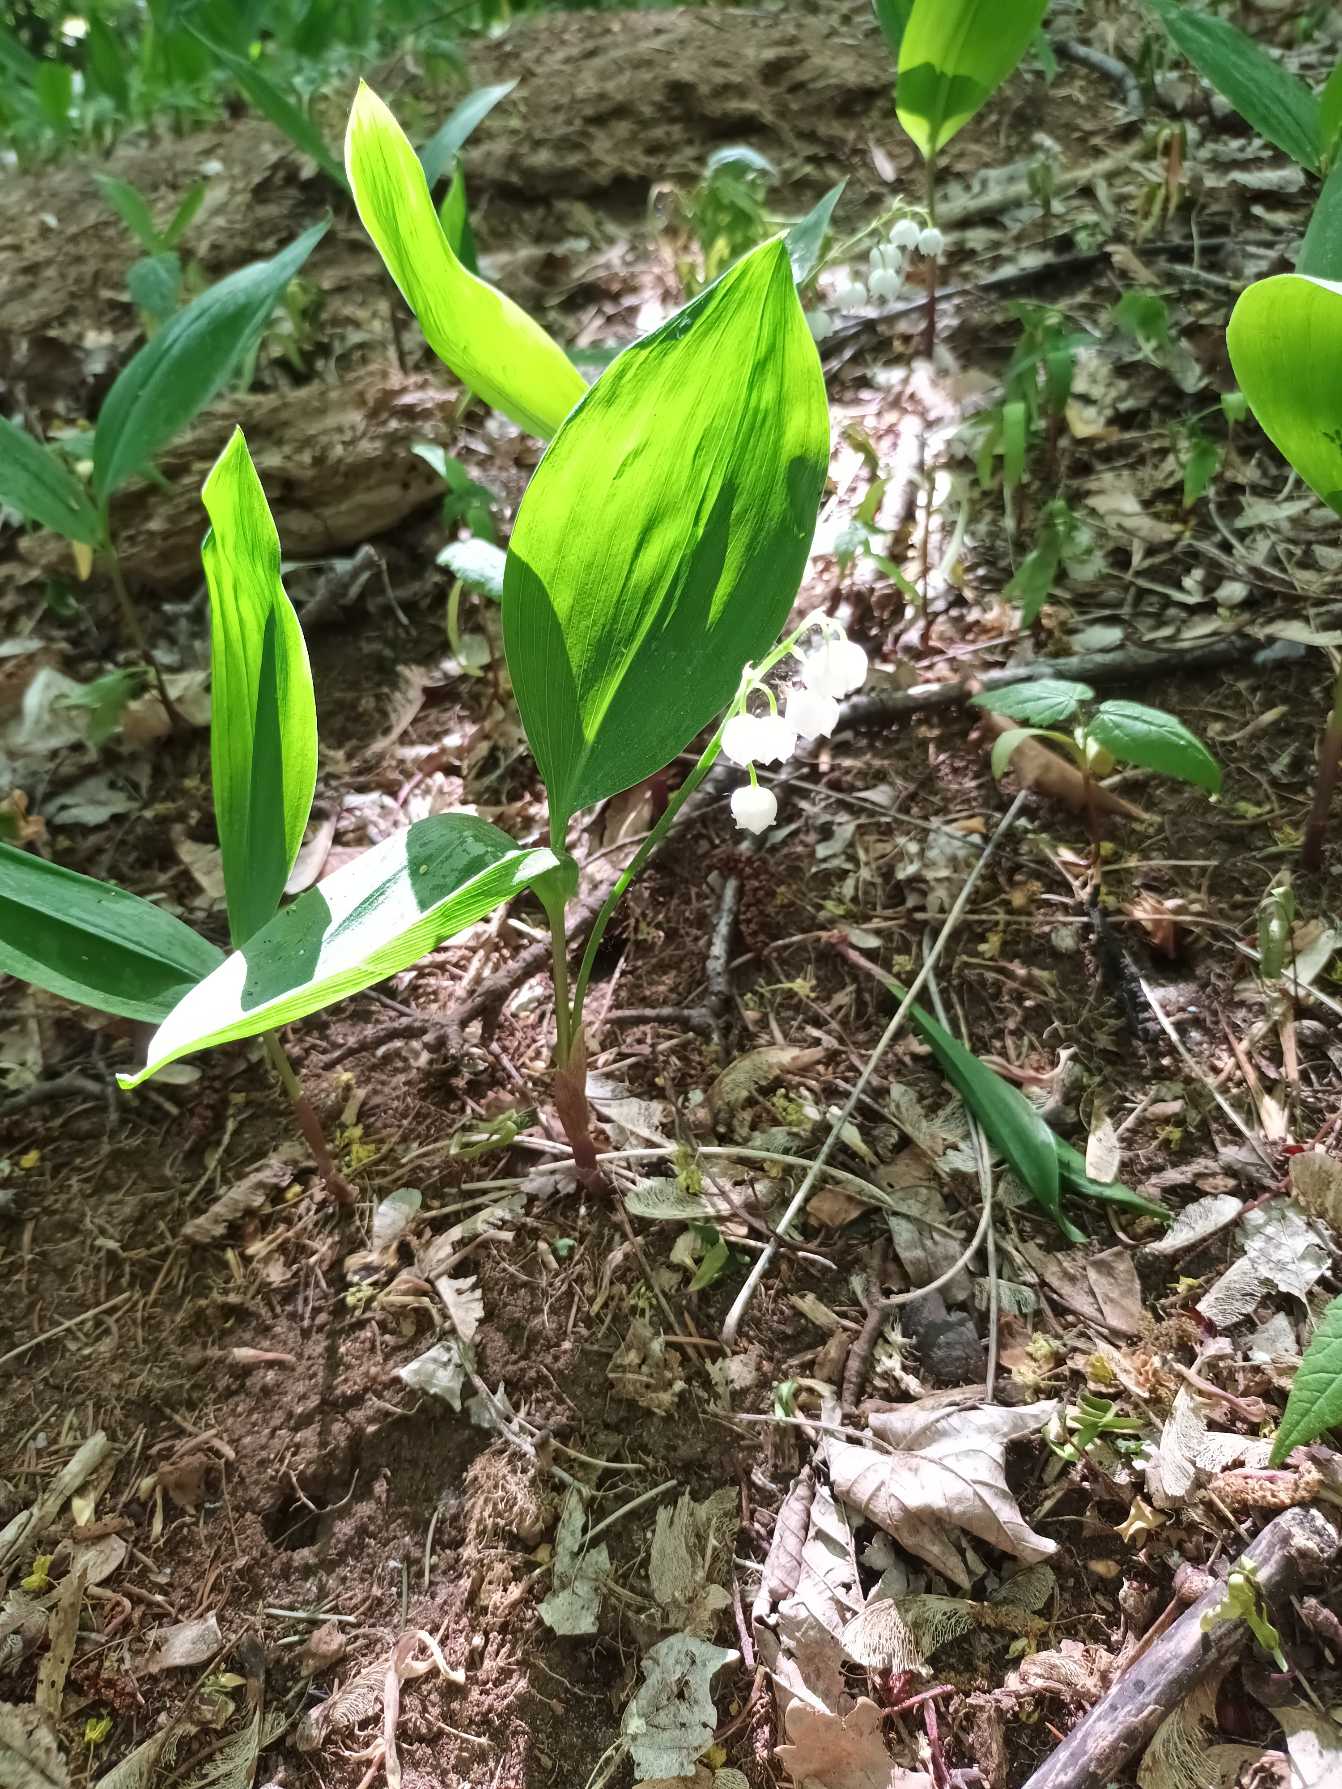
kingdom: Plantae
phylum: Tracheophyta
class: Liliopsida
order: Asparagales
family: Asparagaceae
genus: Convallaria
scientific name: Convallaria majalis
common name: Liljekonval
